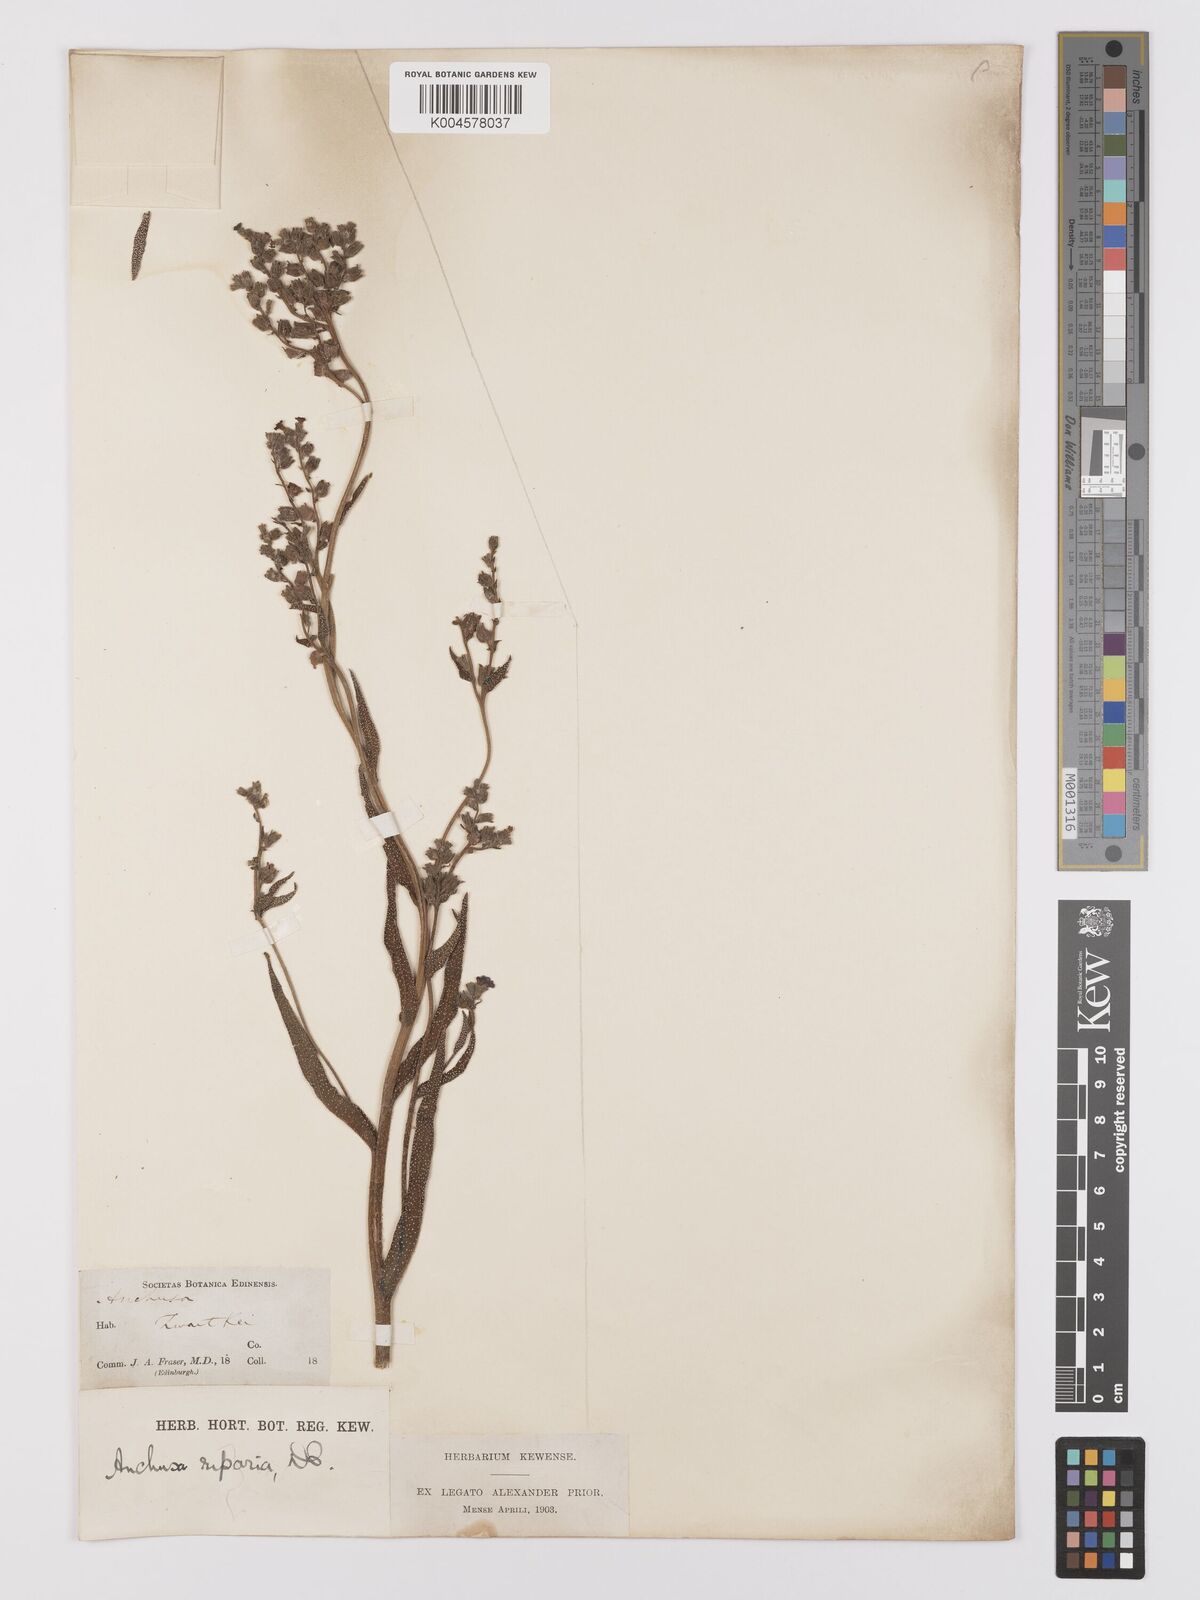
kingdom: Plantae
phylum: Tracheophyta
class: Magnoliopsida
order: Boraginales
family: Boraginaceae
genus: Anchusa
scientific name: Anchusa capensis
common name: Cape bugloss
